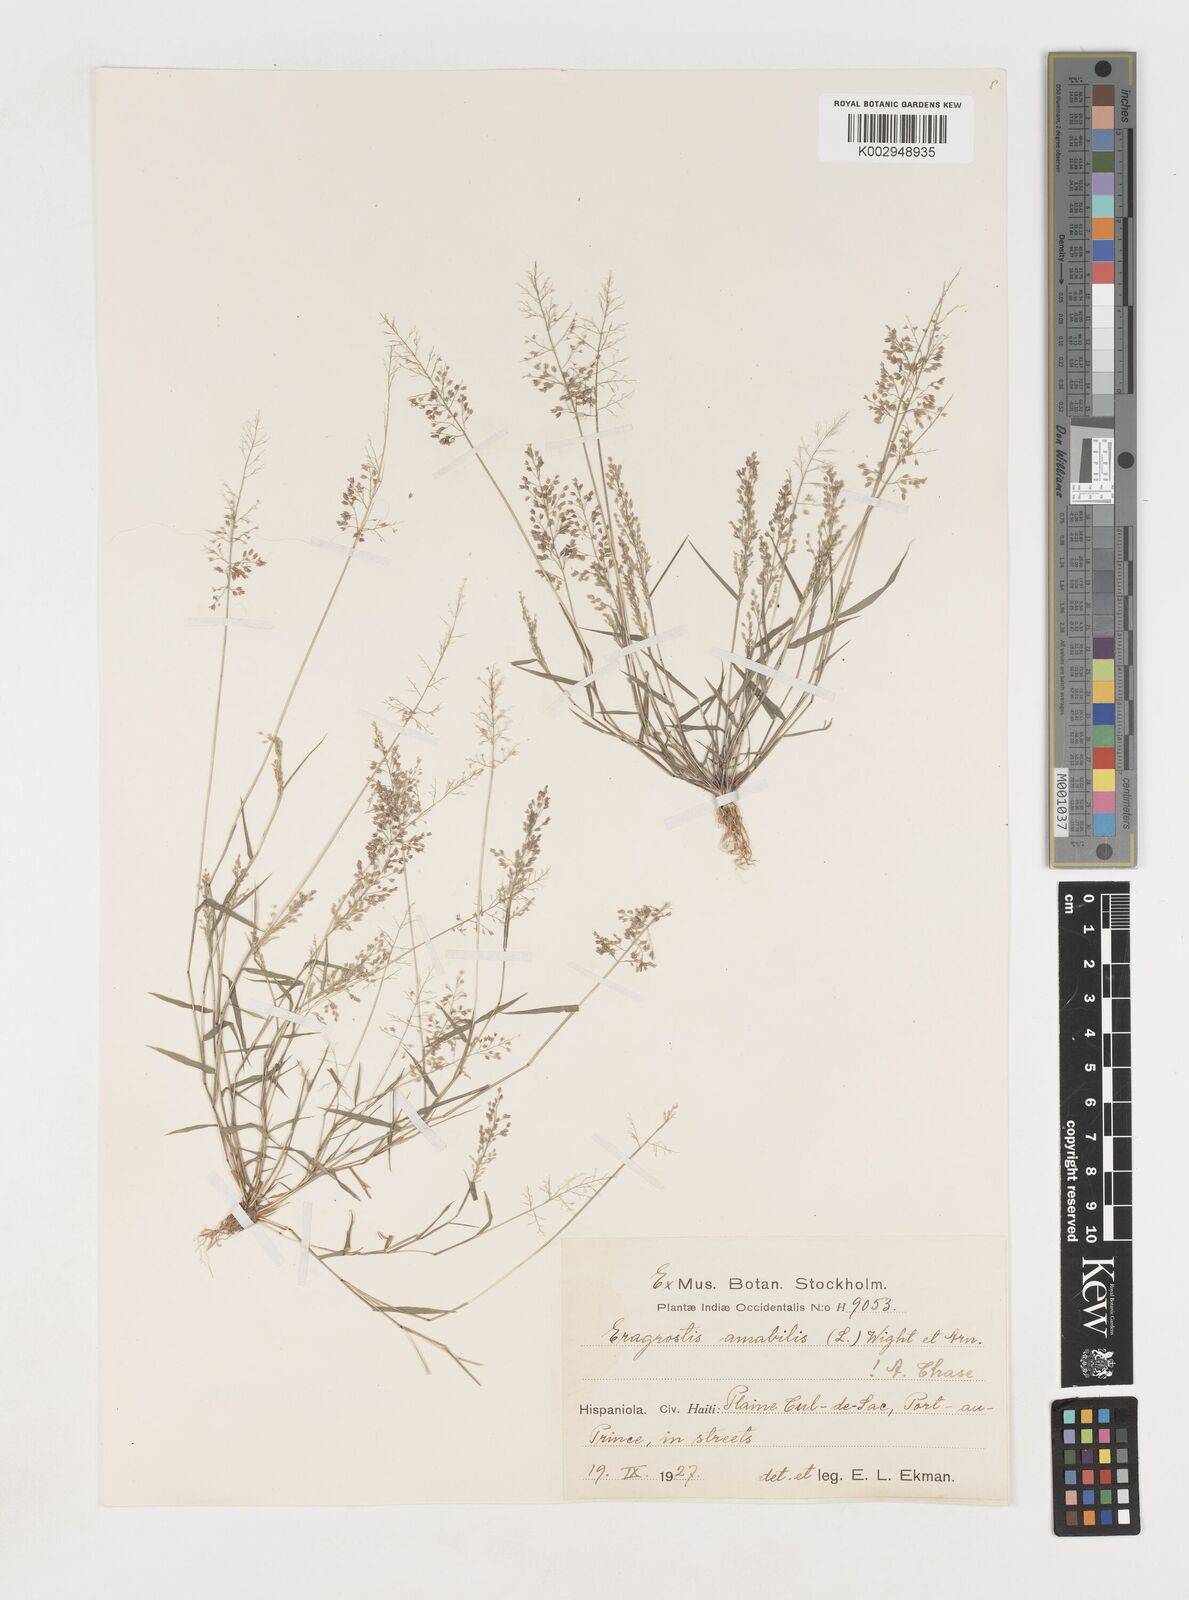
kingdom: Plantae
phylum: Tracheophyta
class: Liliopsida
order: Poales
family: Poaceae
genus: Eragrostis
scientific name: Eragrostis
